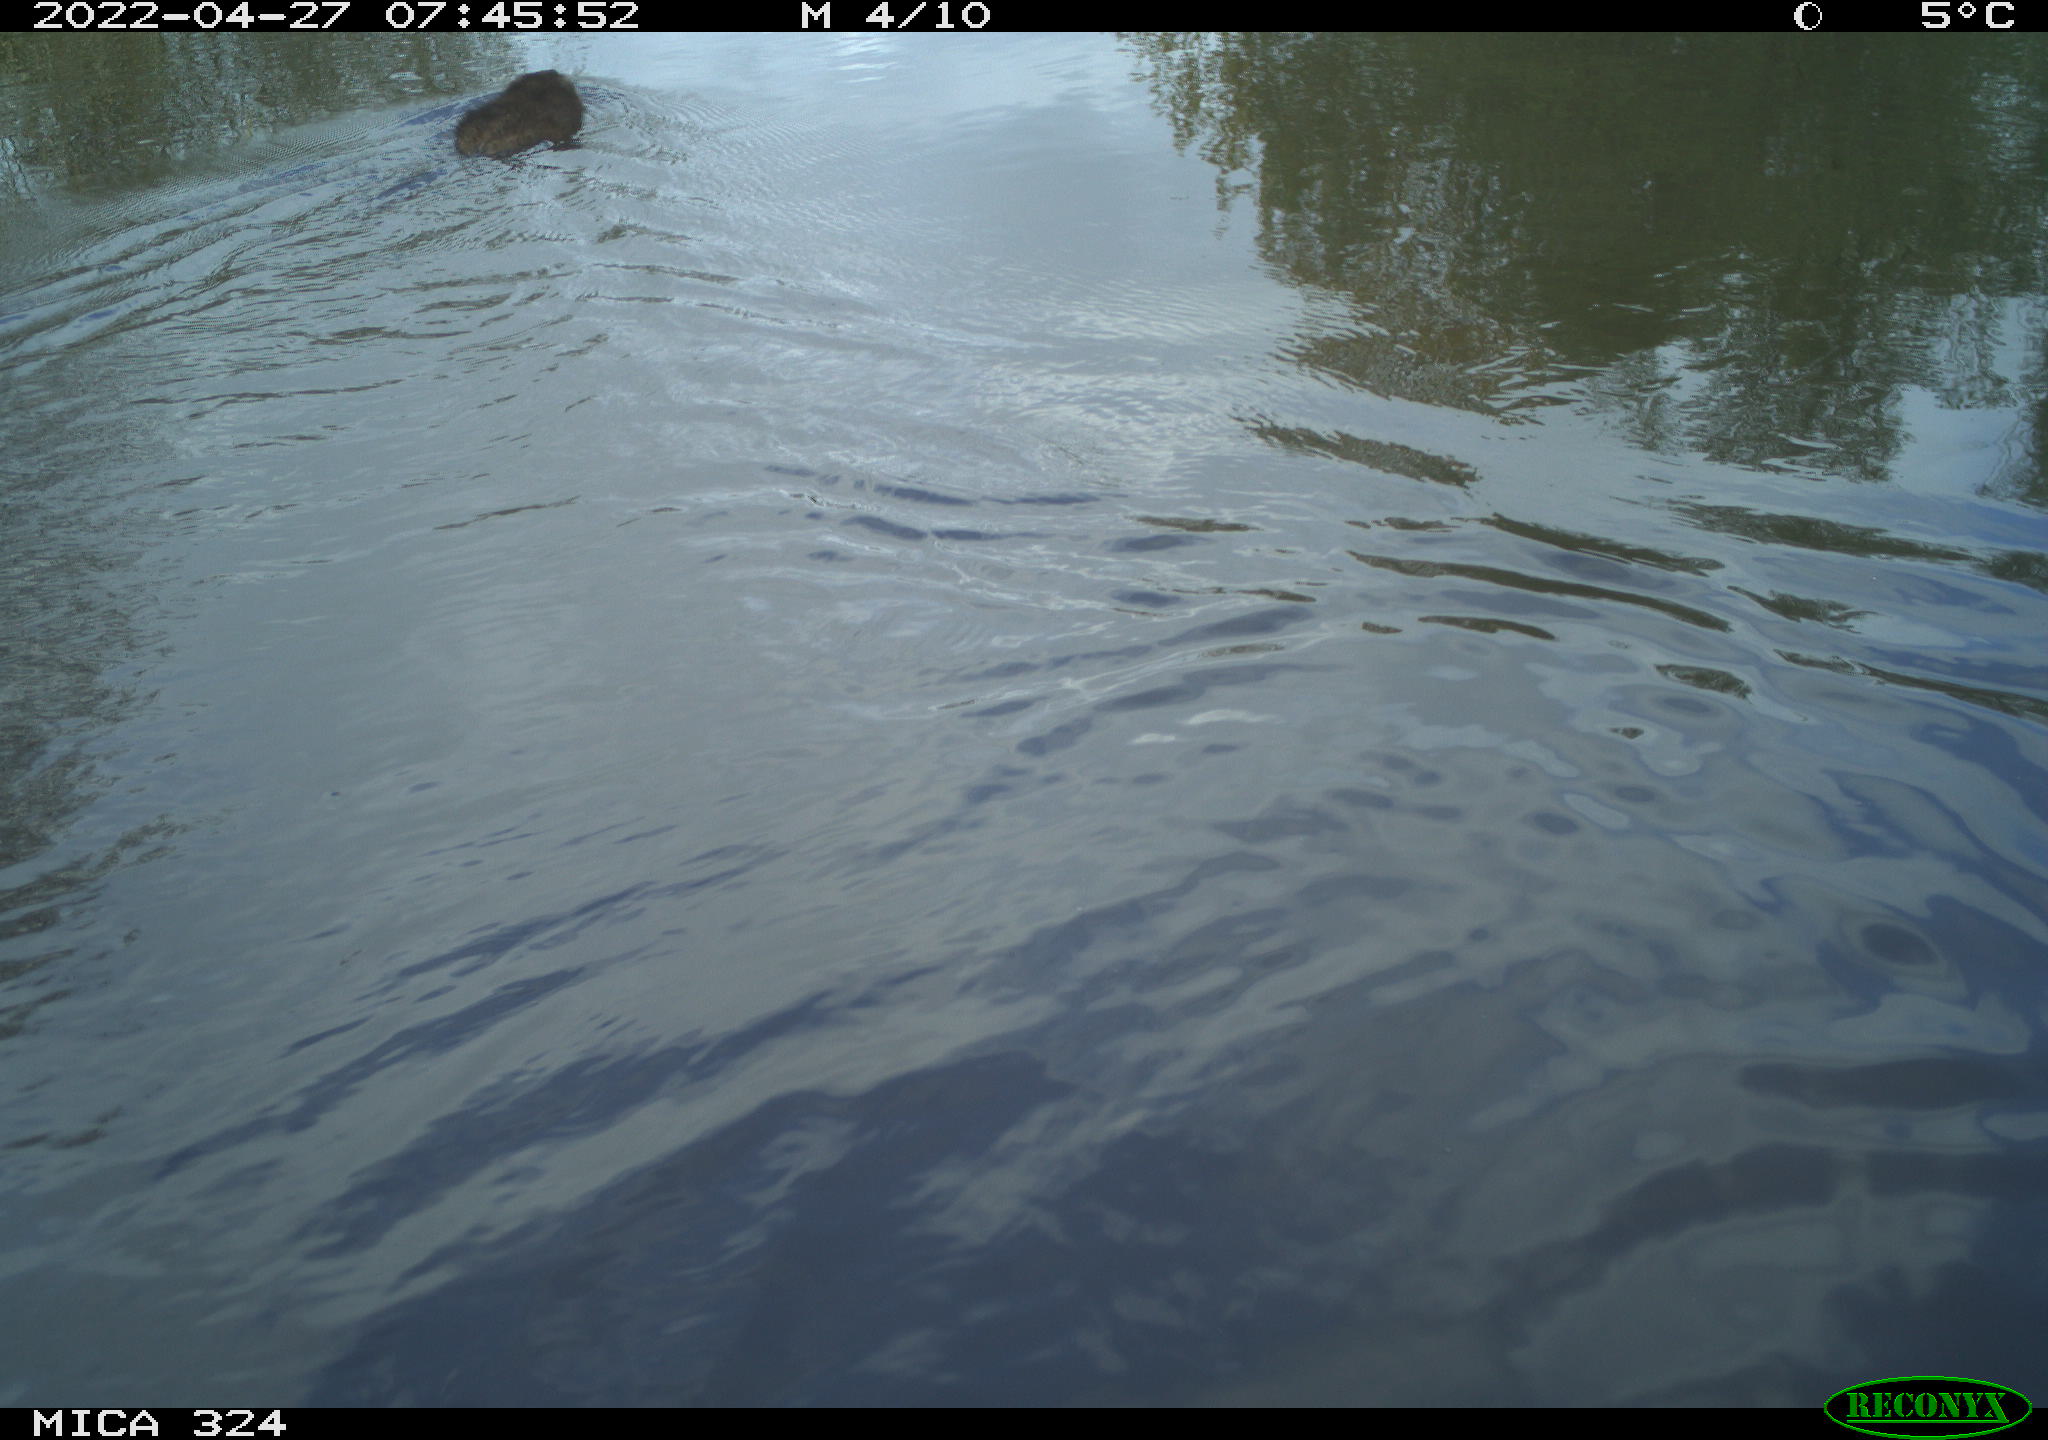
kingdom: Animalia
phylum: Chordata
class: Mammalia
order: Rodentia
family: Cricetidae
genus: Ondatra
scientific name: Ondatra zibethicus
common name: Muskrat
